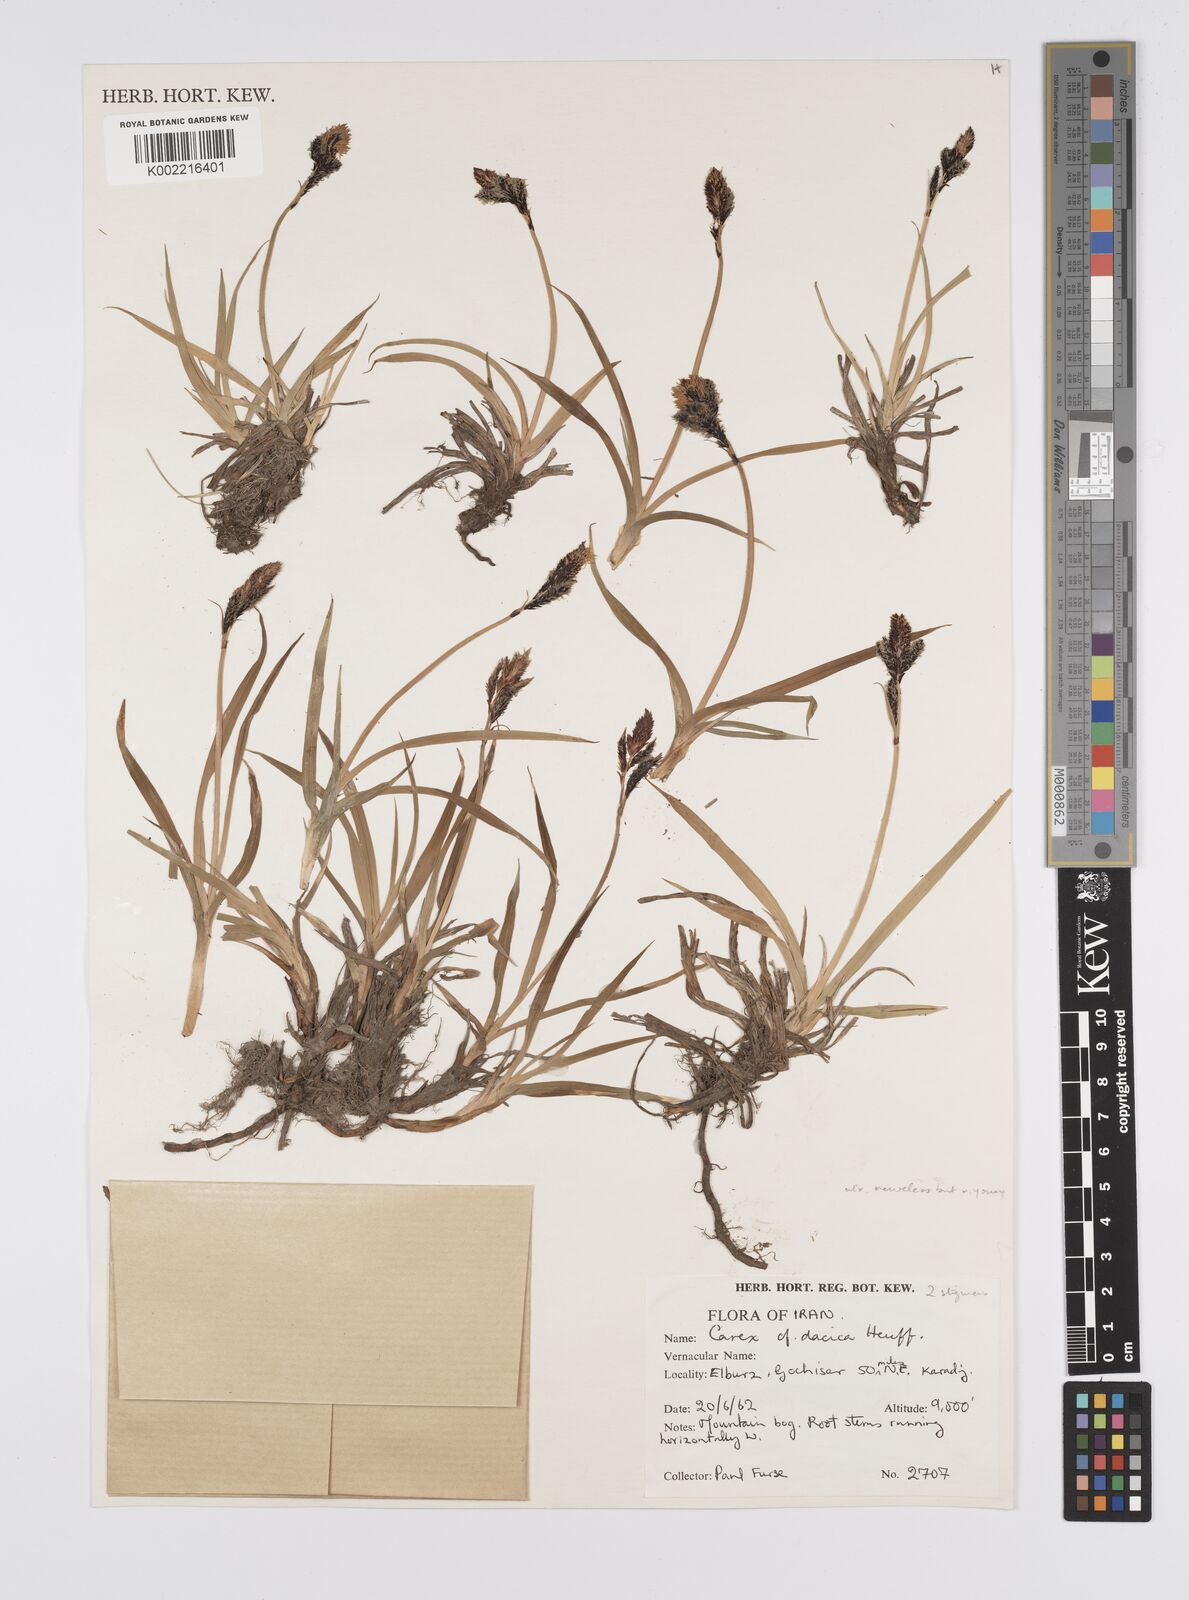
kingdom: Plantae
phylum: Tracheophyta
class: Liliopsida
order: Poales
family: Cyperaceae
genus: Carex
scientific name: Carex dacica
